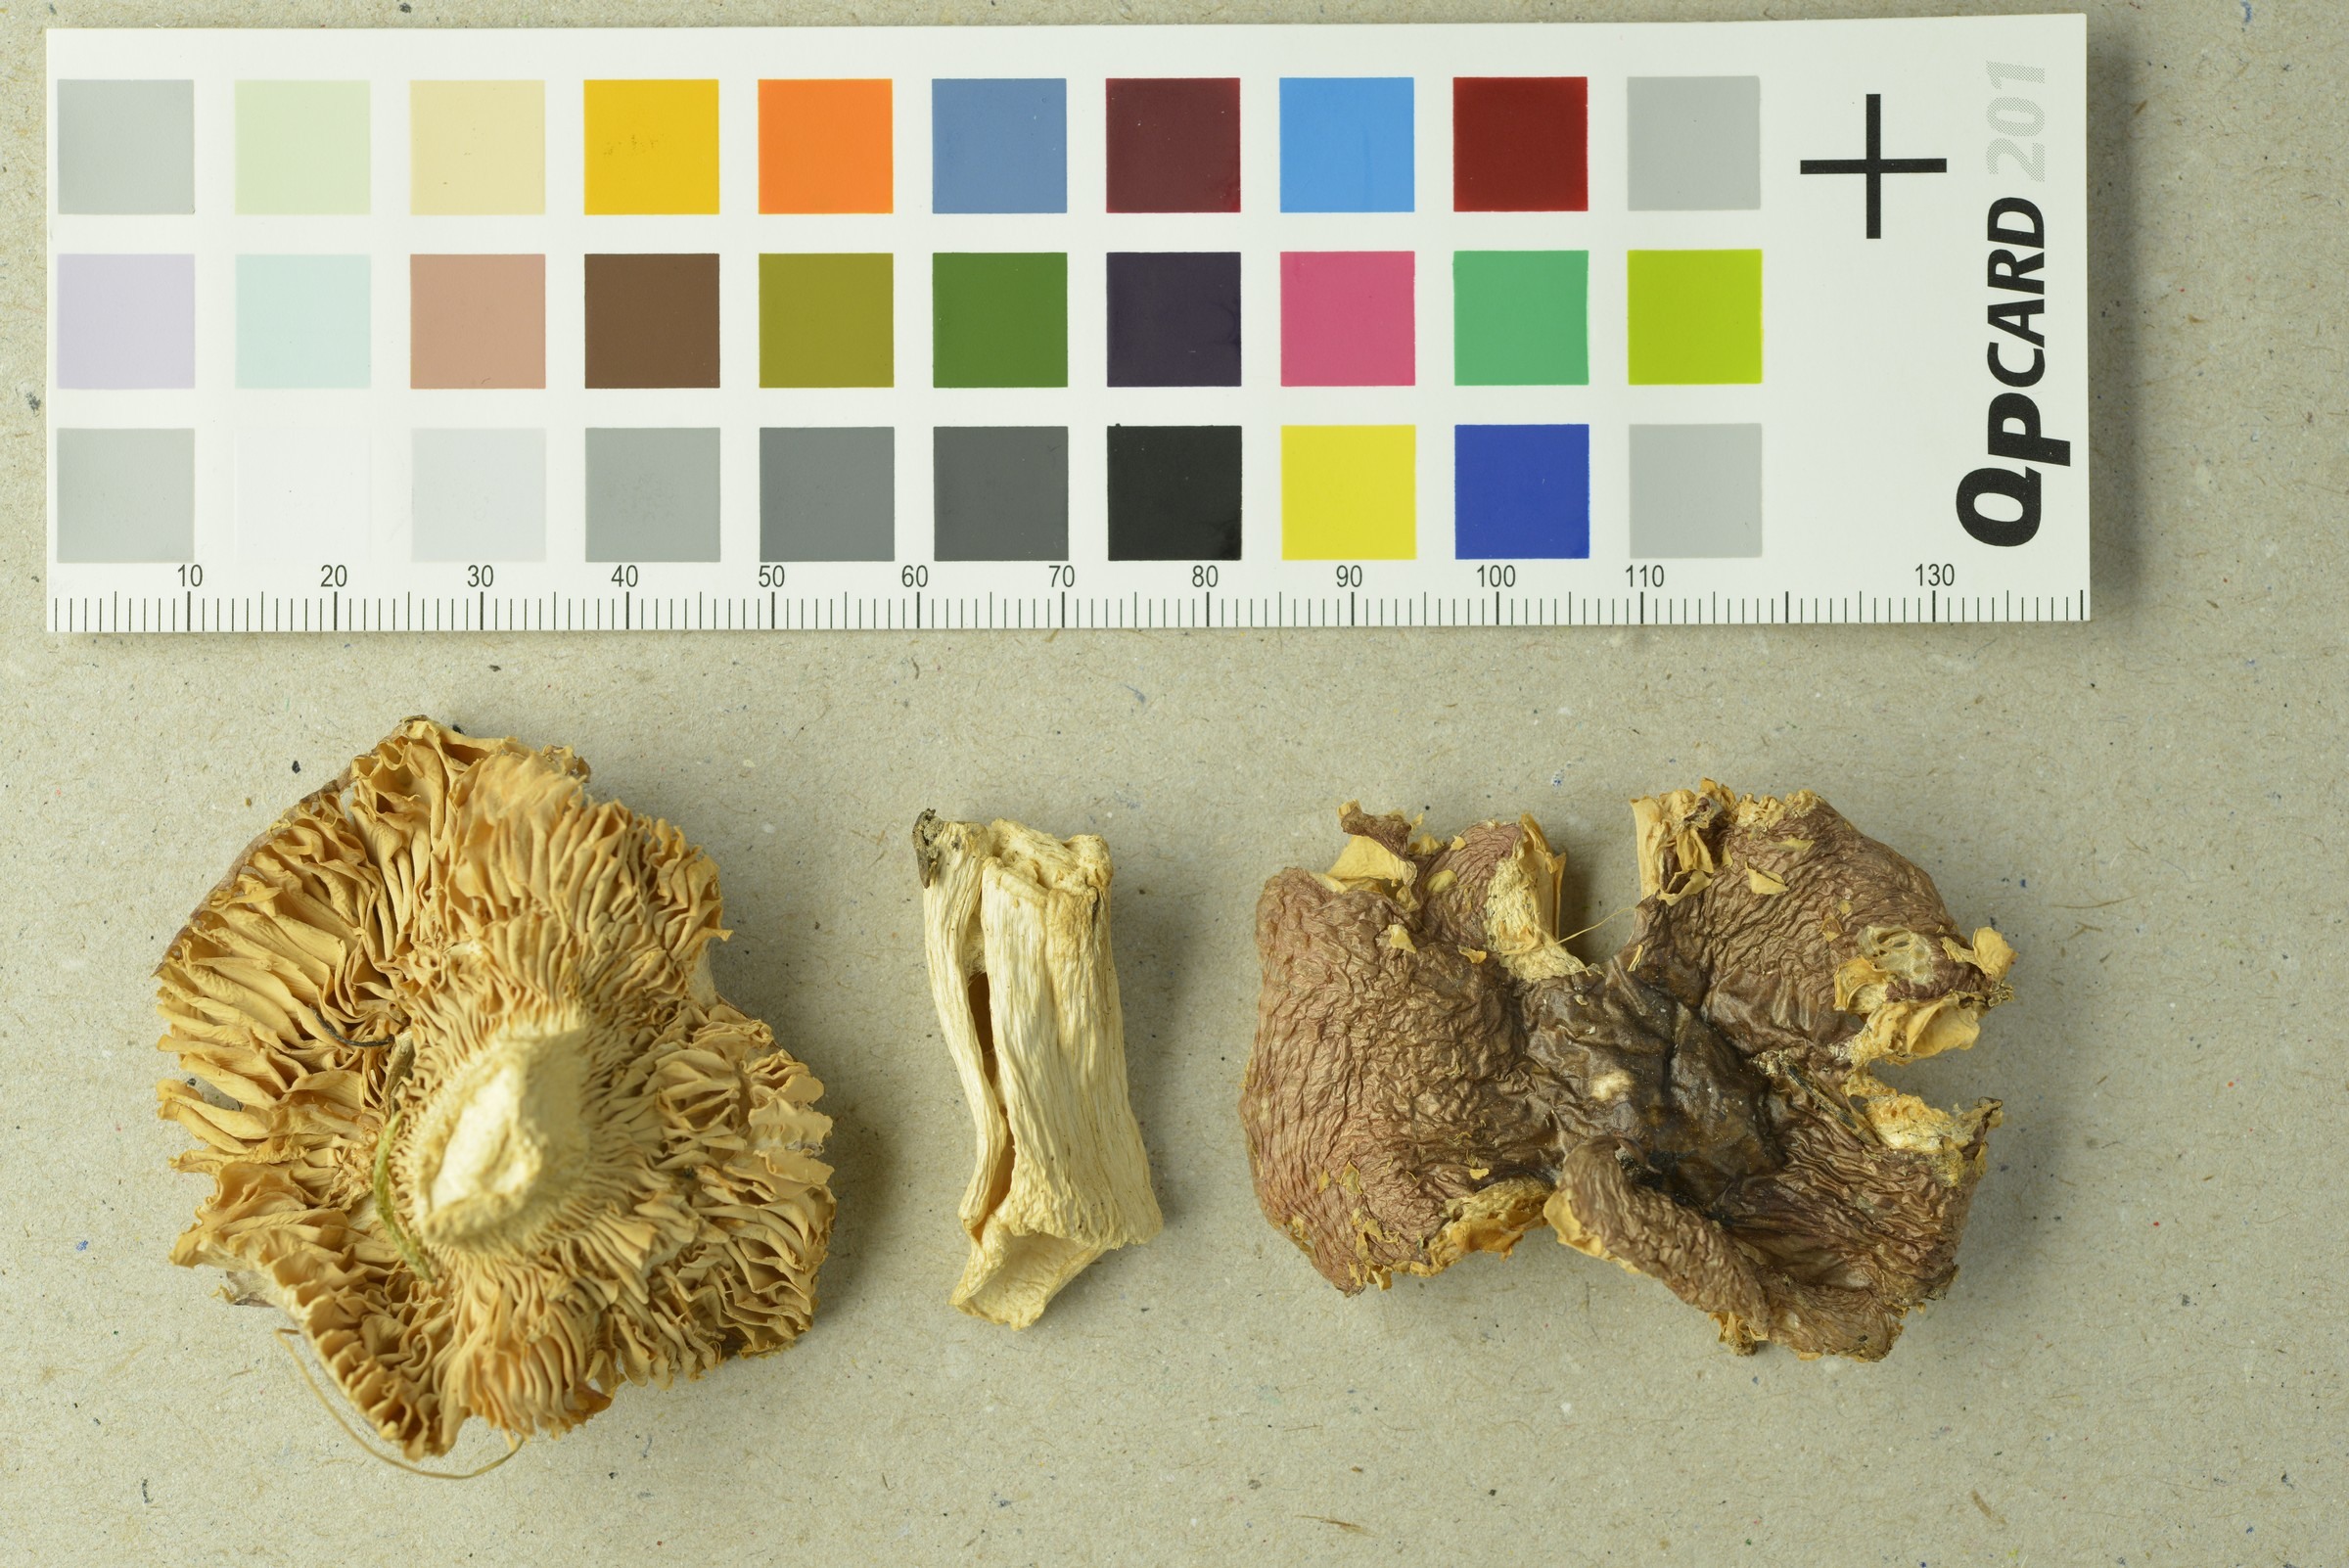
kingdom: Fungi
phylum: Basidiomycota
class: Agaricomycetes
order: Russulales
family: Russulaceae
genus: Russula
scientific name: Russula rivulicola
